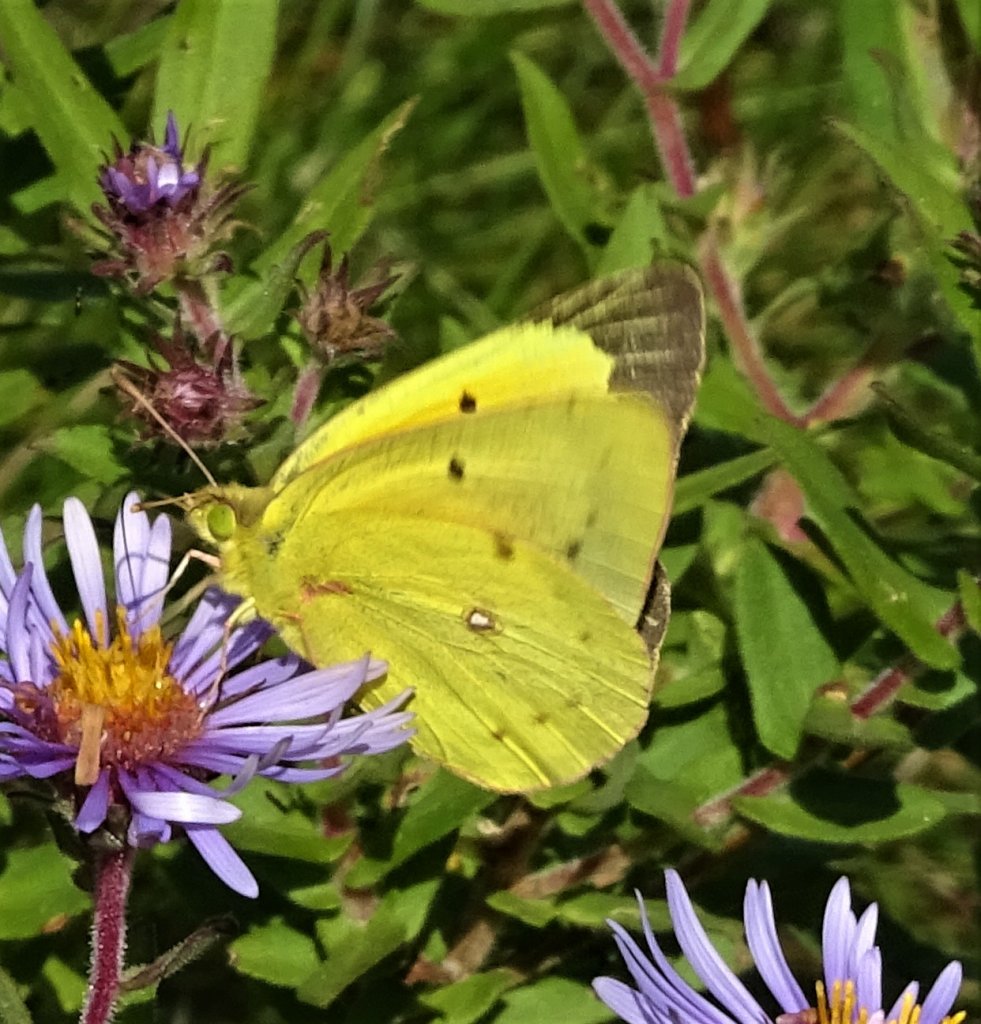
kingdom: Animalia
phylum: Arthropoda
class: Insecta
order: Lepidoptera
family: Pieridae
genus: Colias
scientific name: Colias eurytheme
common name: Orange Sulphur
